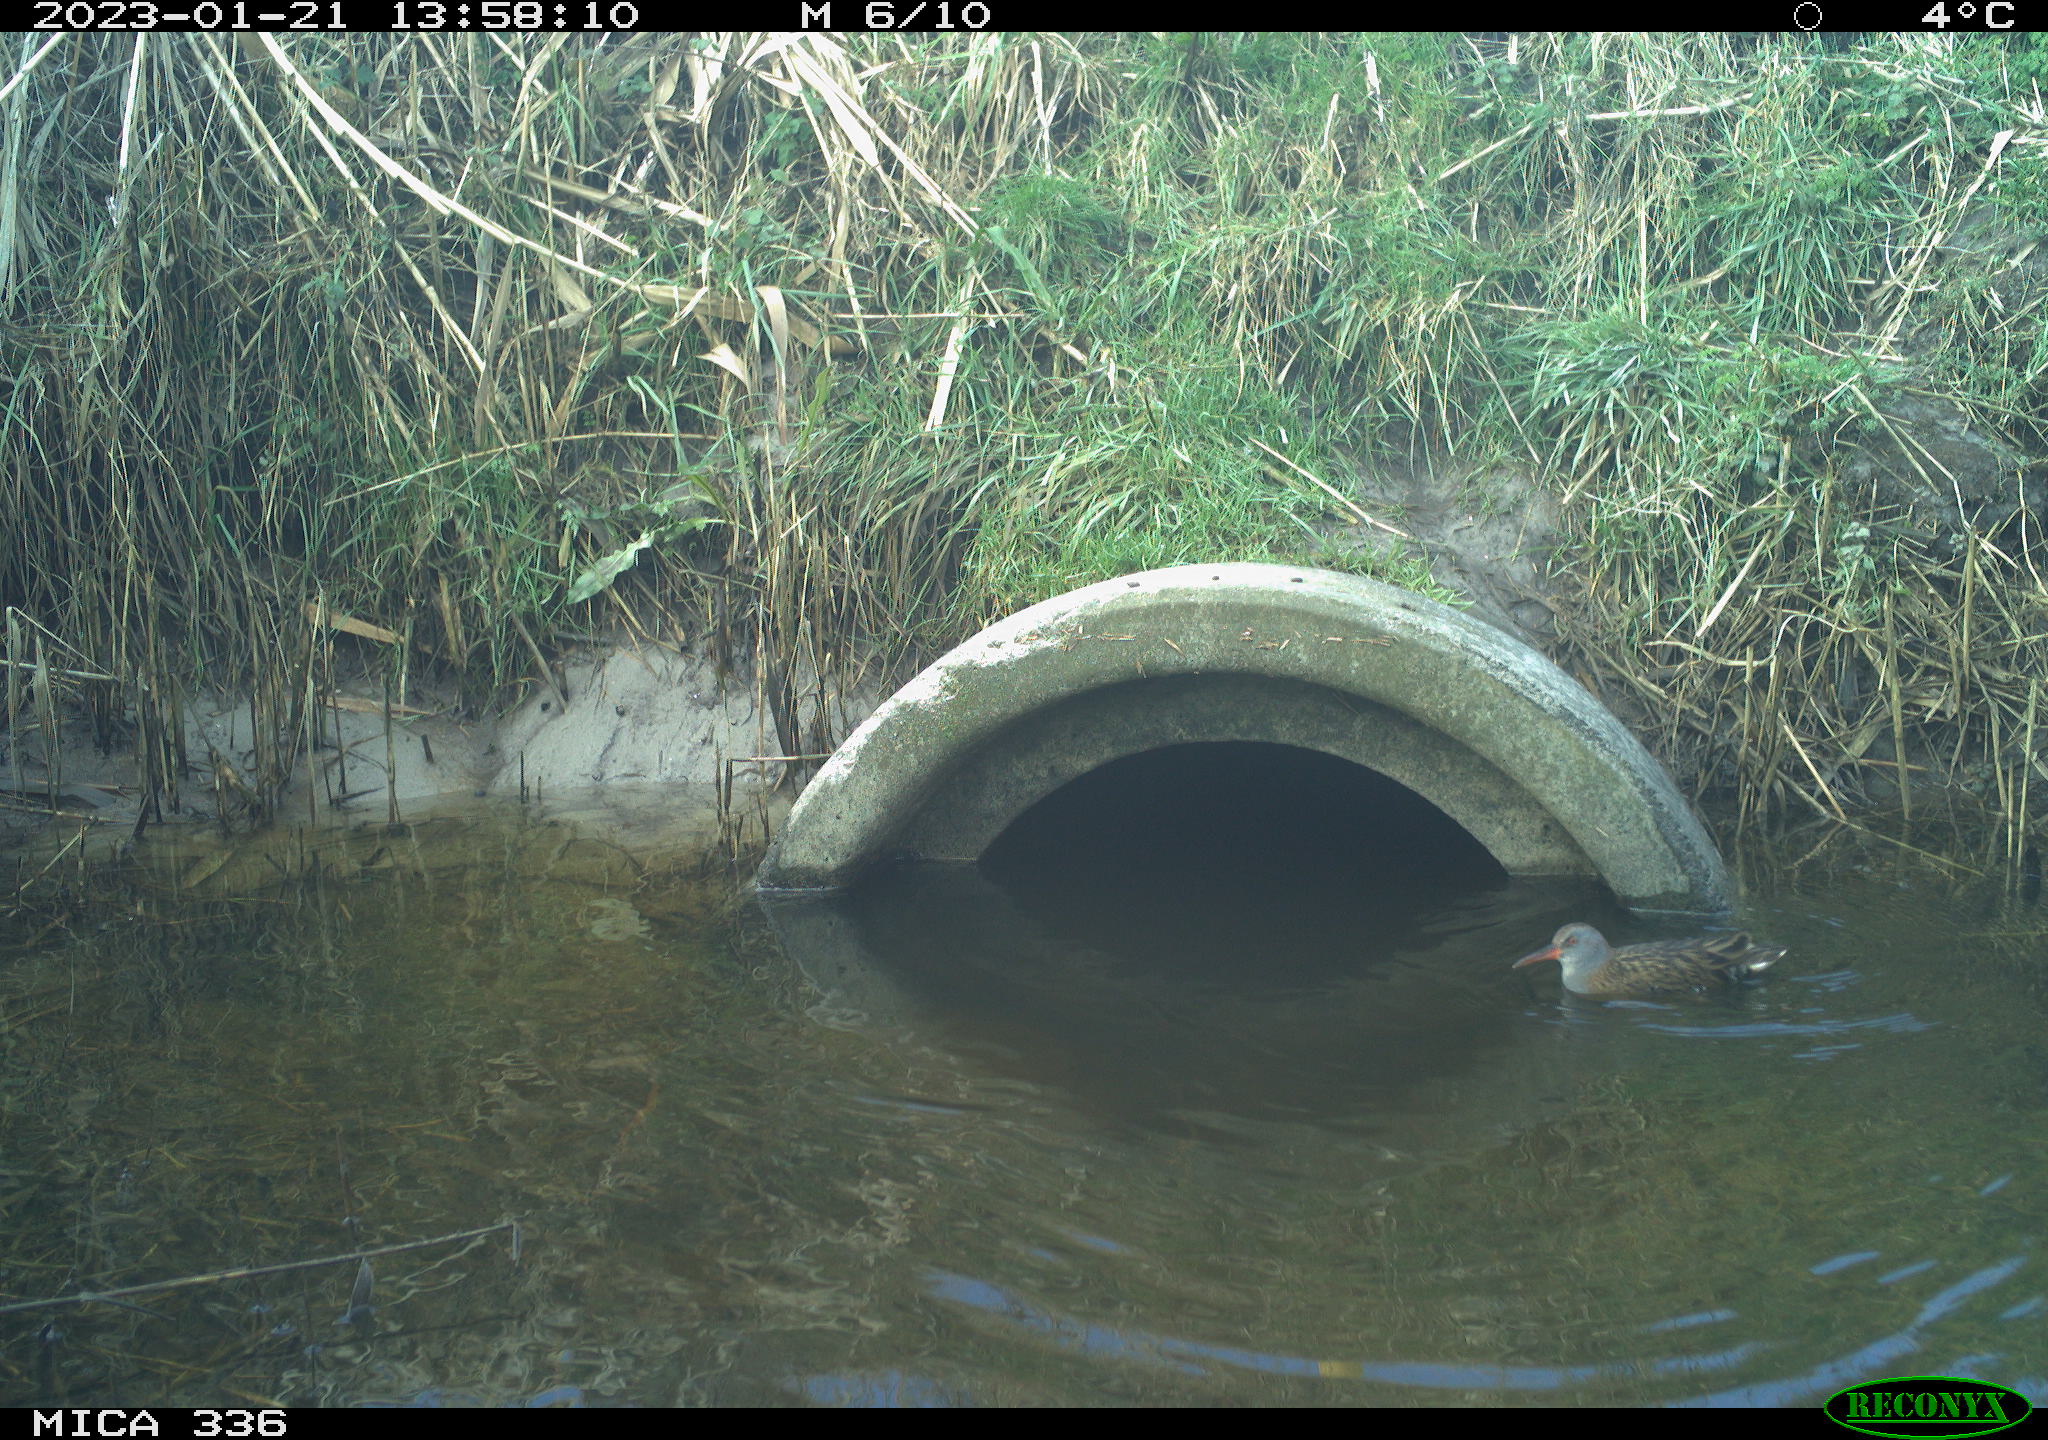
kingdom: Animalia
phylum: Chordata
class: Aves
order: Gruiformes
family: Rallidae
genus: Rallus
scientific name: Rallus aquaticus
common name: Water rail
